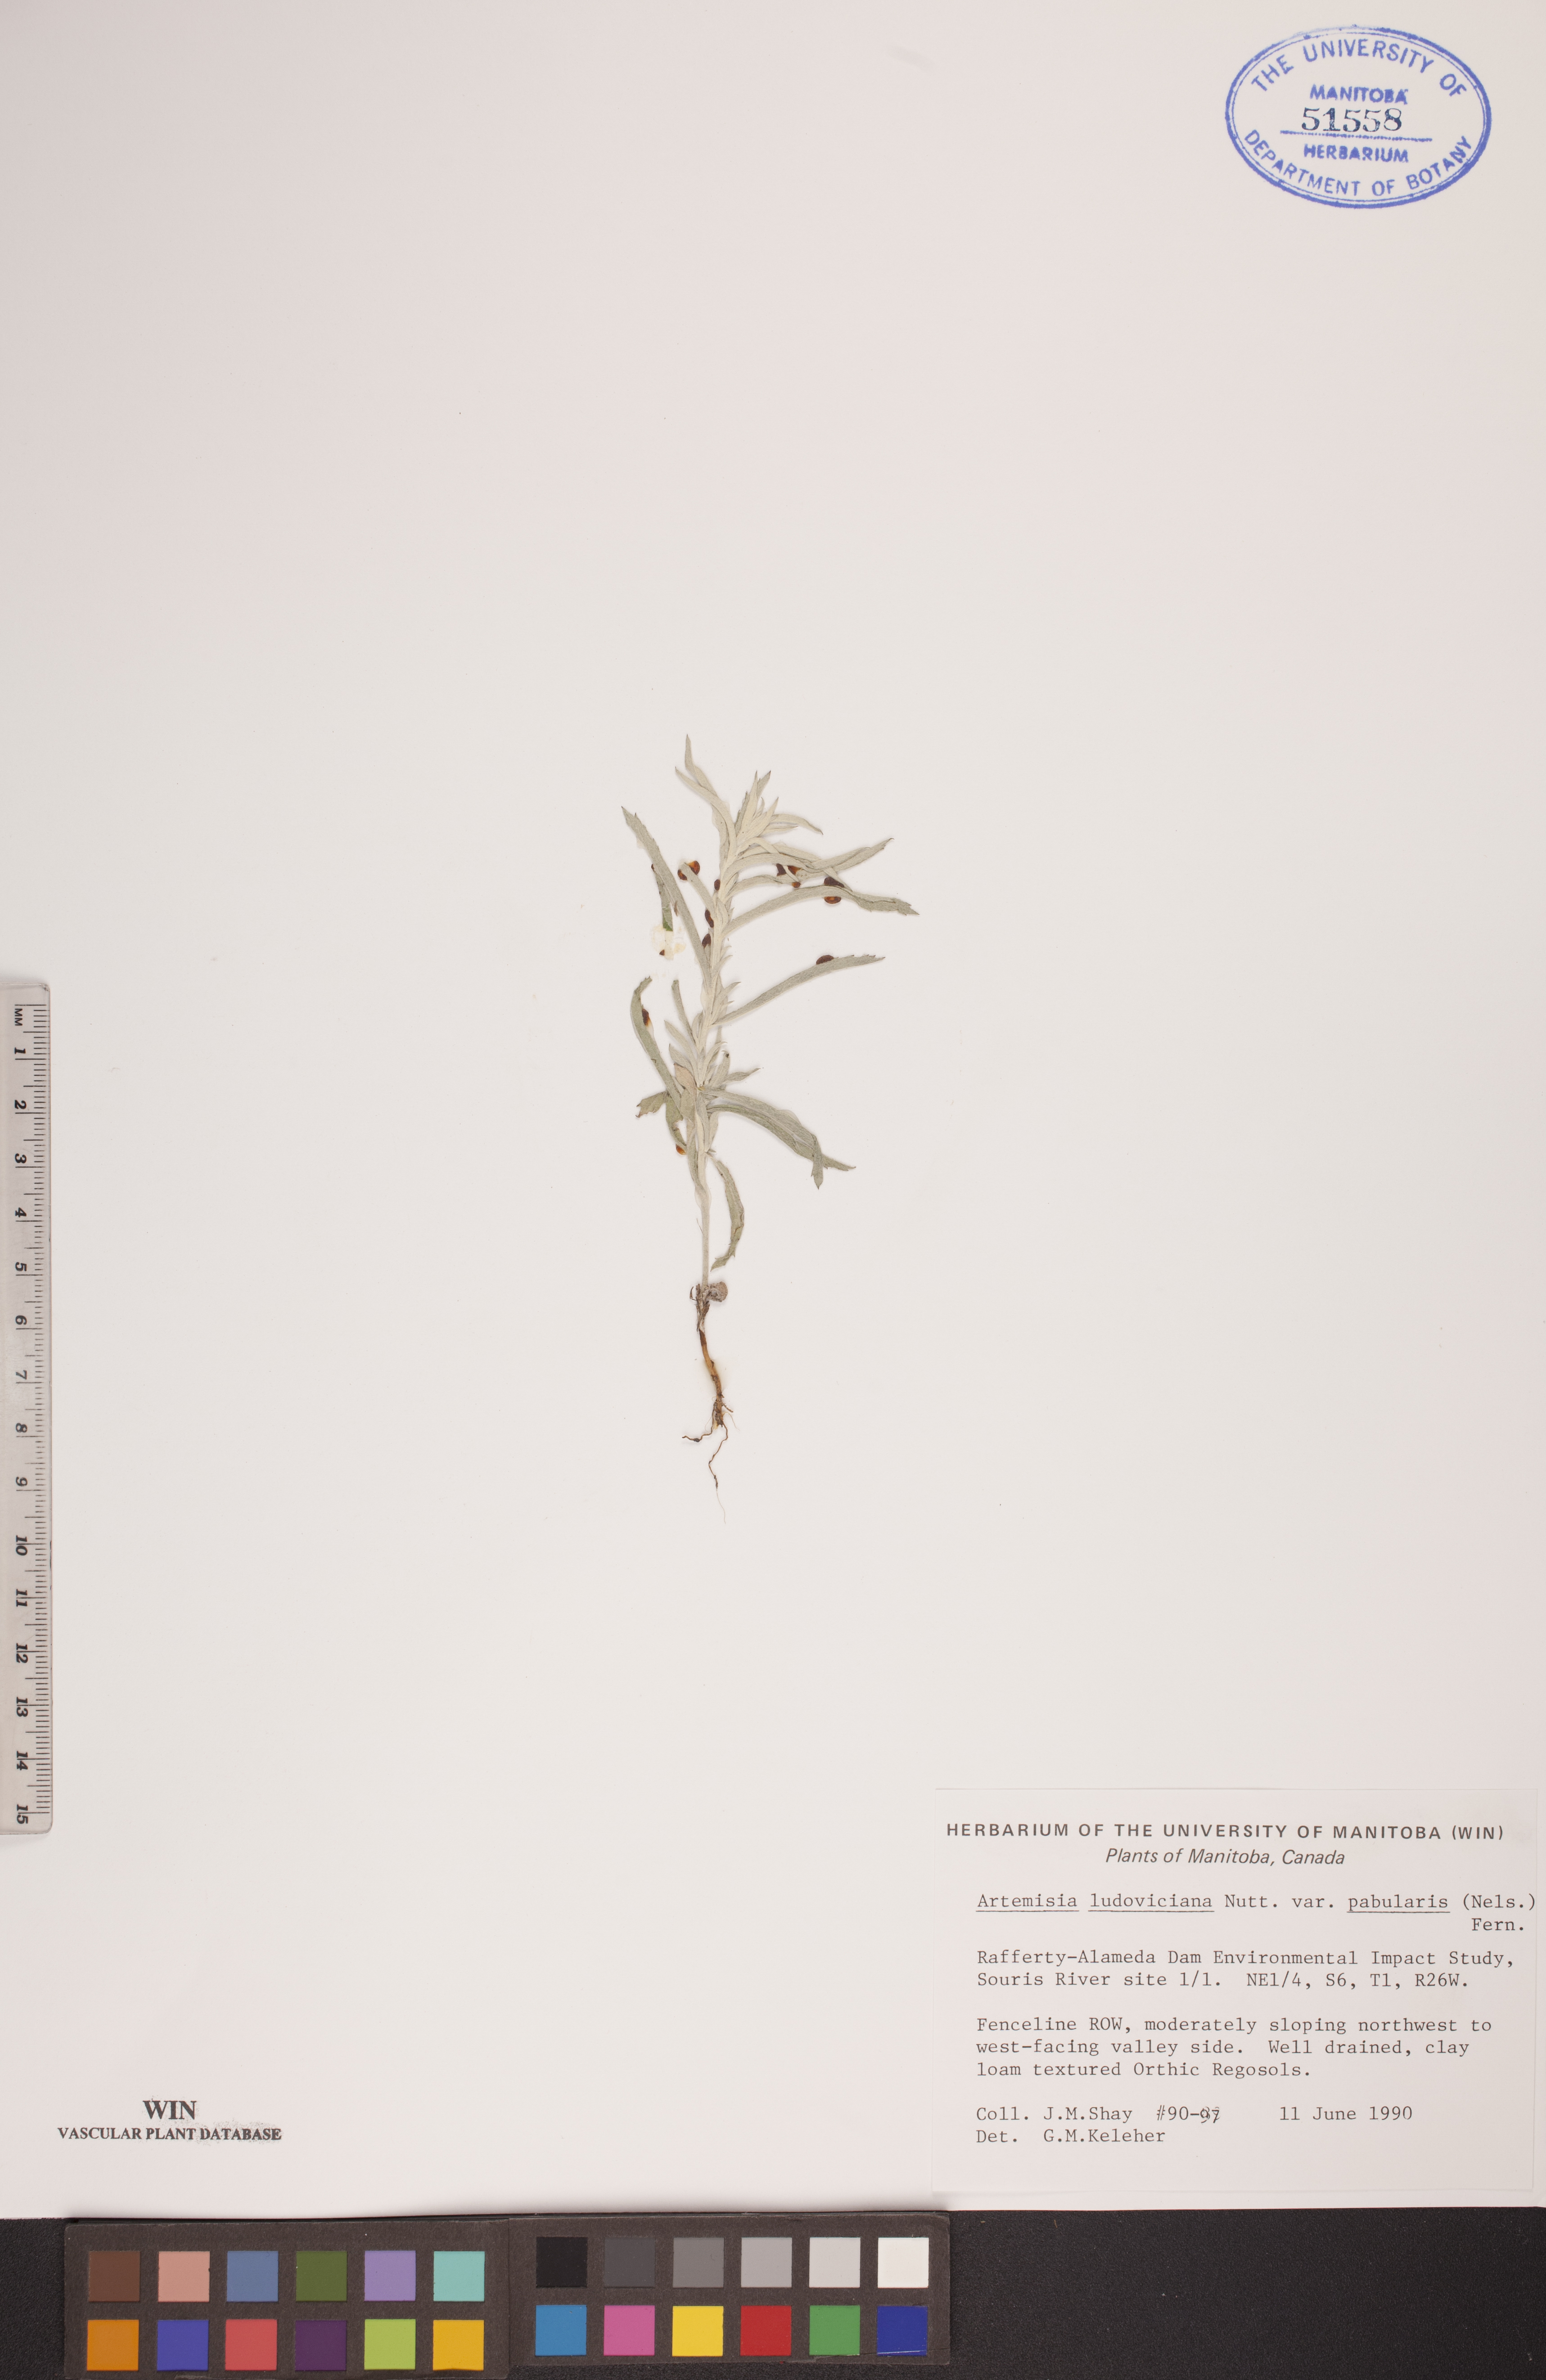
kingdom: Plantae
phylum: Tracheophyta
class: Magnoliopsida
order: Asterales
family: Asteraceae
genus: Artemisia
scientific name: Artemisia ludoviciana
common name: Western mugwort
